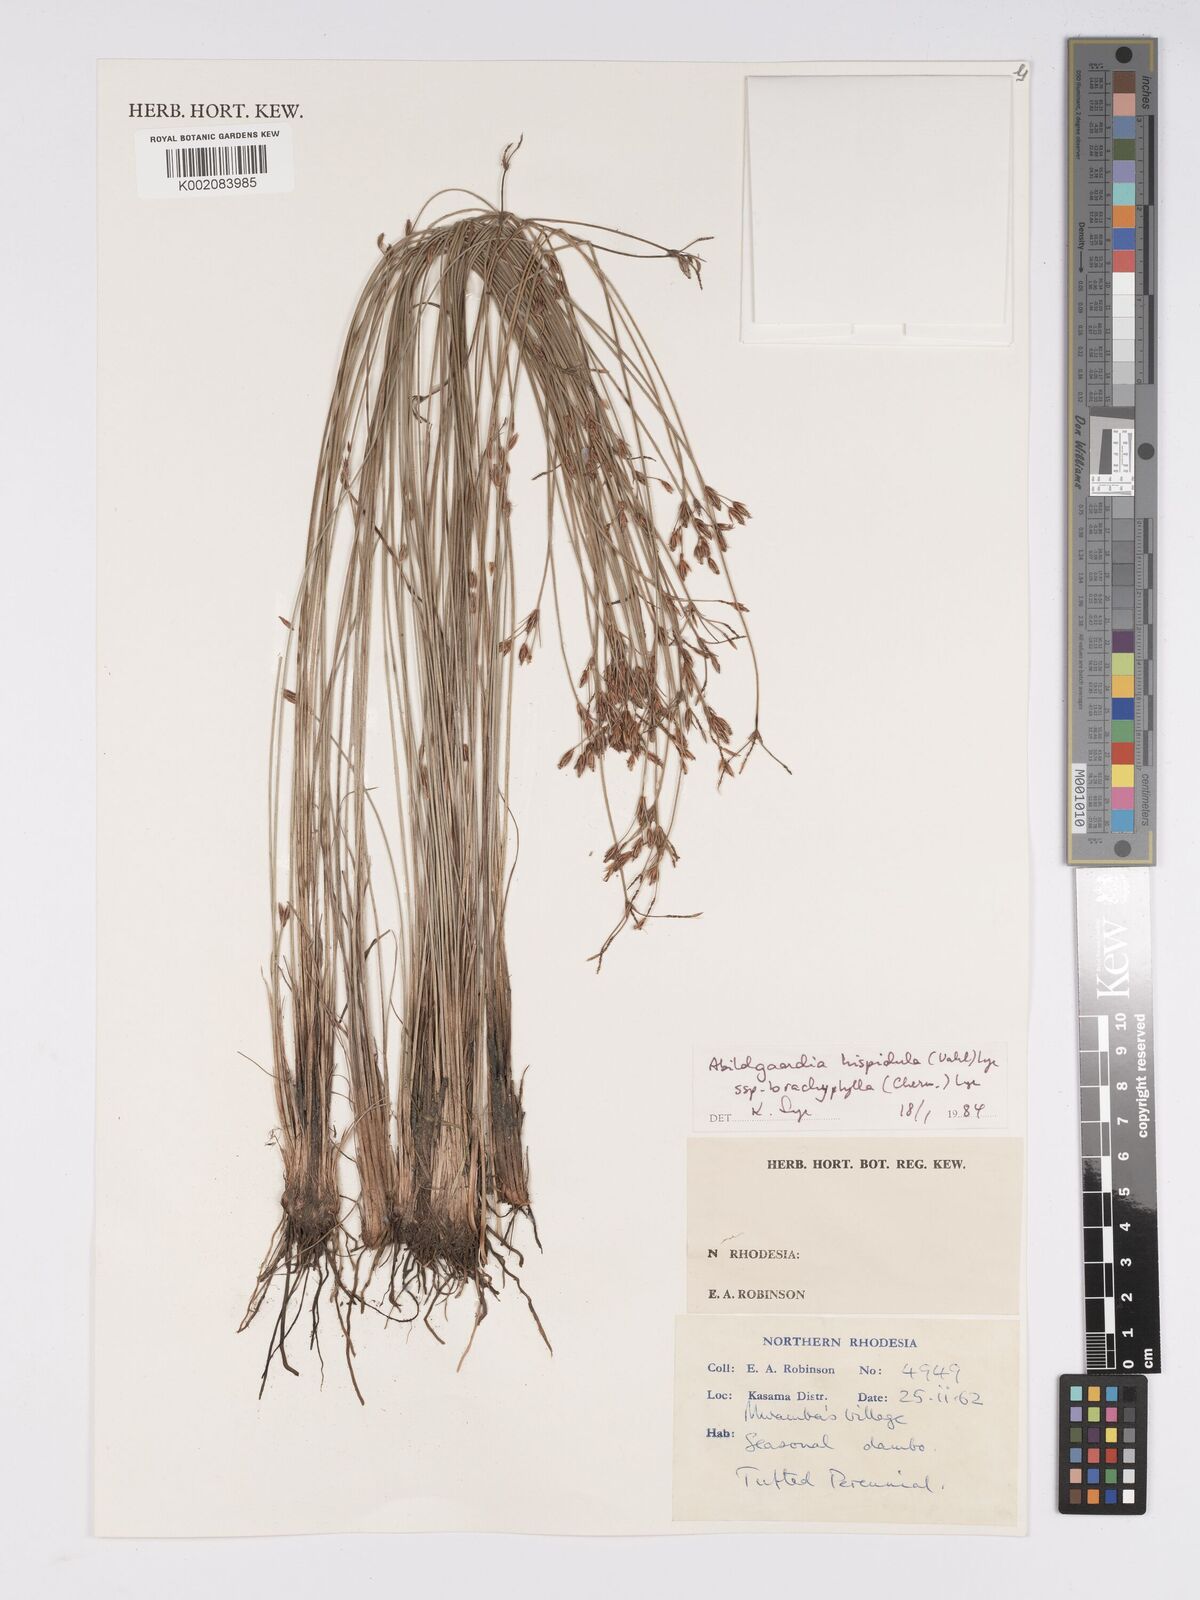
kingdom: Plantae
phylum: Tracheophyta
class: Liliopsida
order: Poales
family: Cyperaceae
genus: Bulbostylis
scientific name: Bulbostylis hispidula
